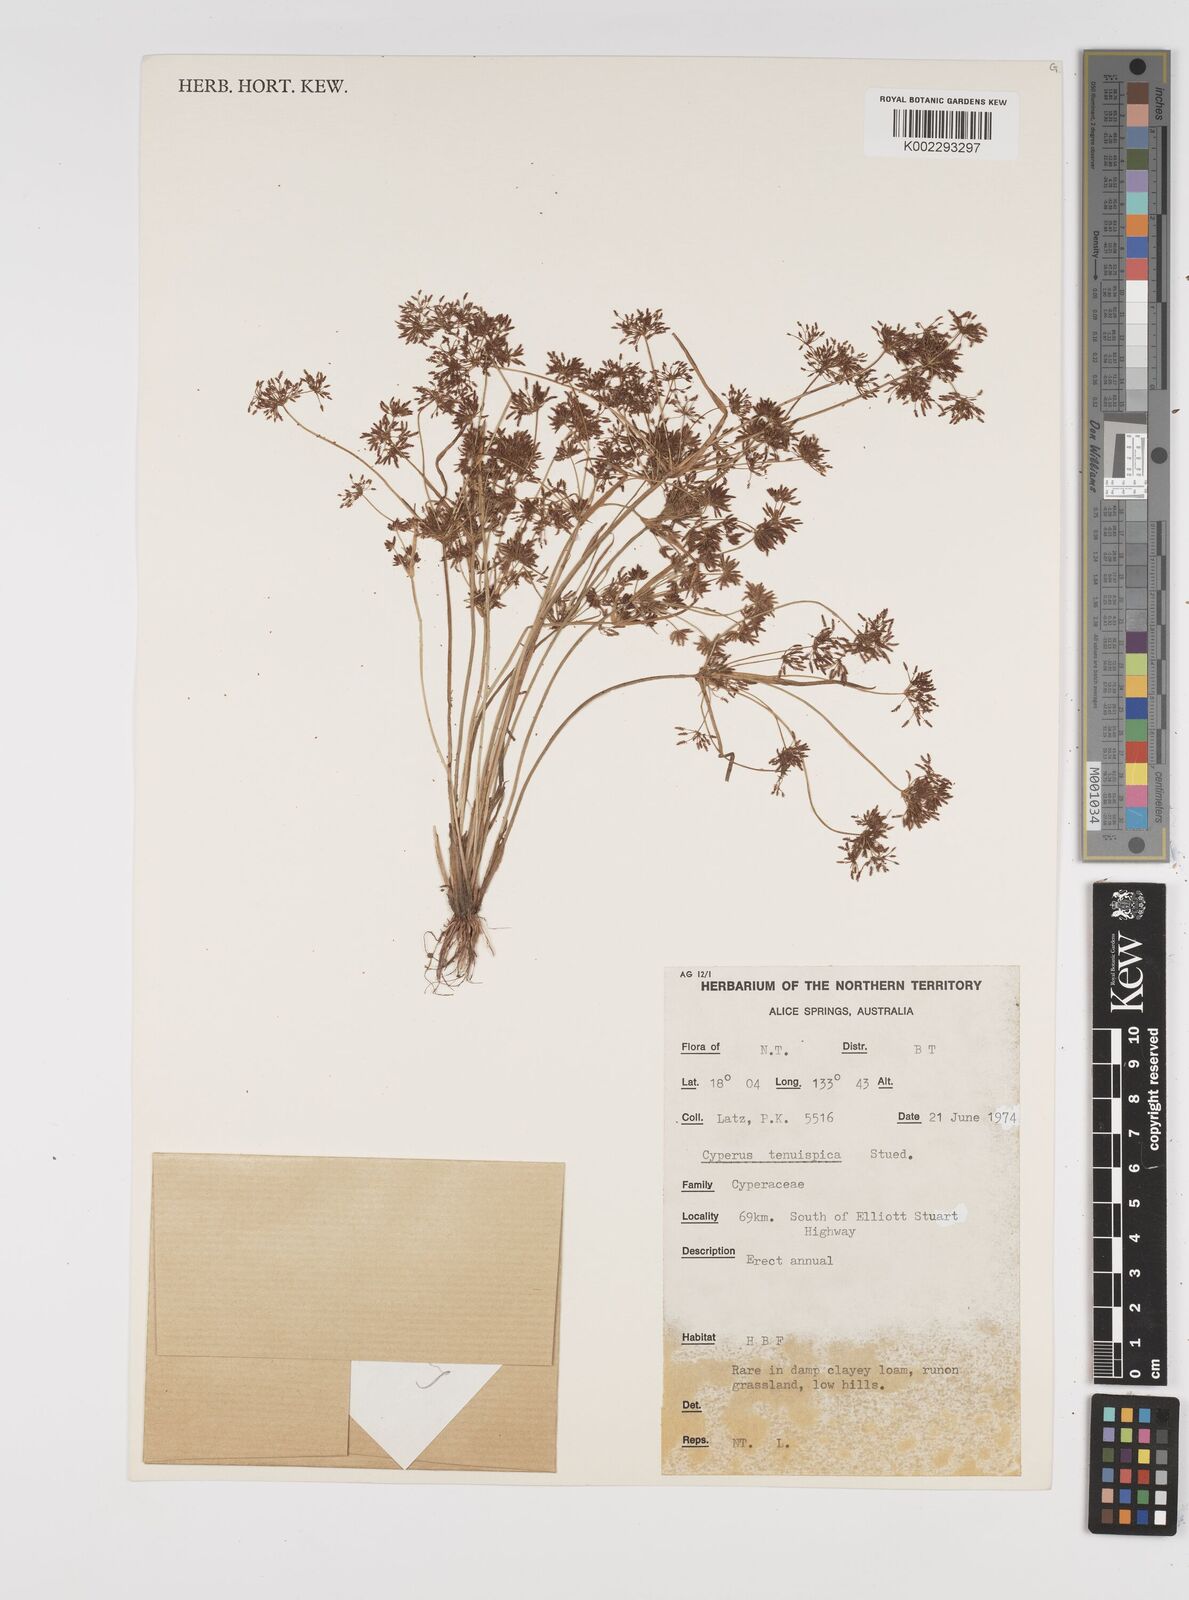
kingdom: Plantae
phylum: Tracheophyta
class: Liliopsida
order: Poales
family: Cyperaceae
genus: Cyperus
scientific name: Cyperus tenuispica
